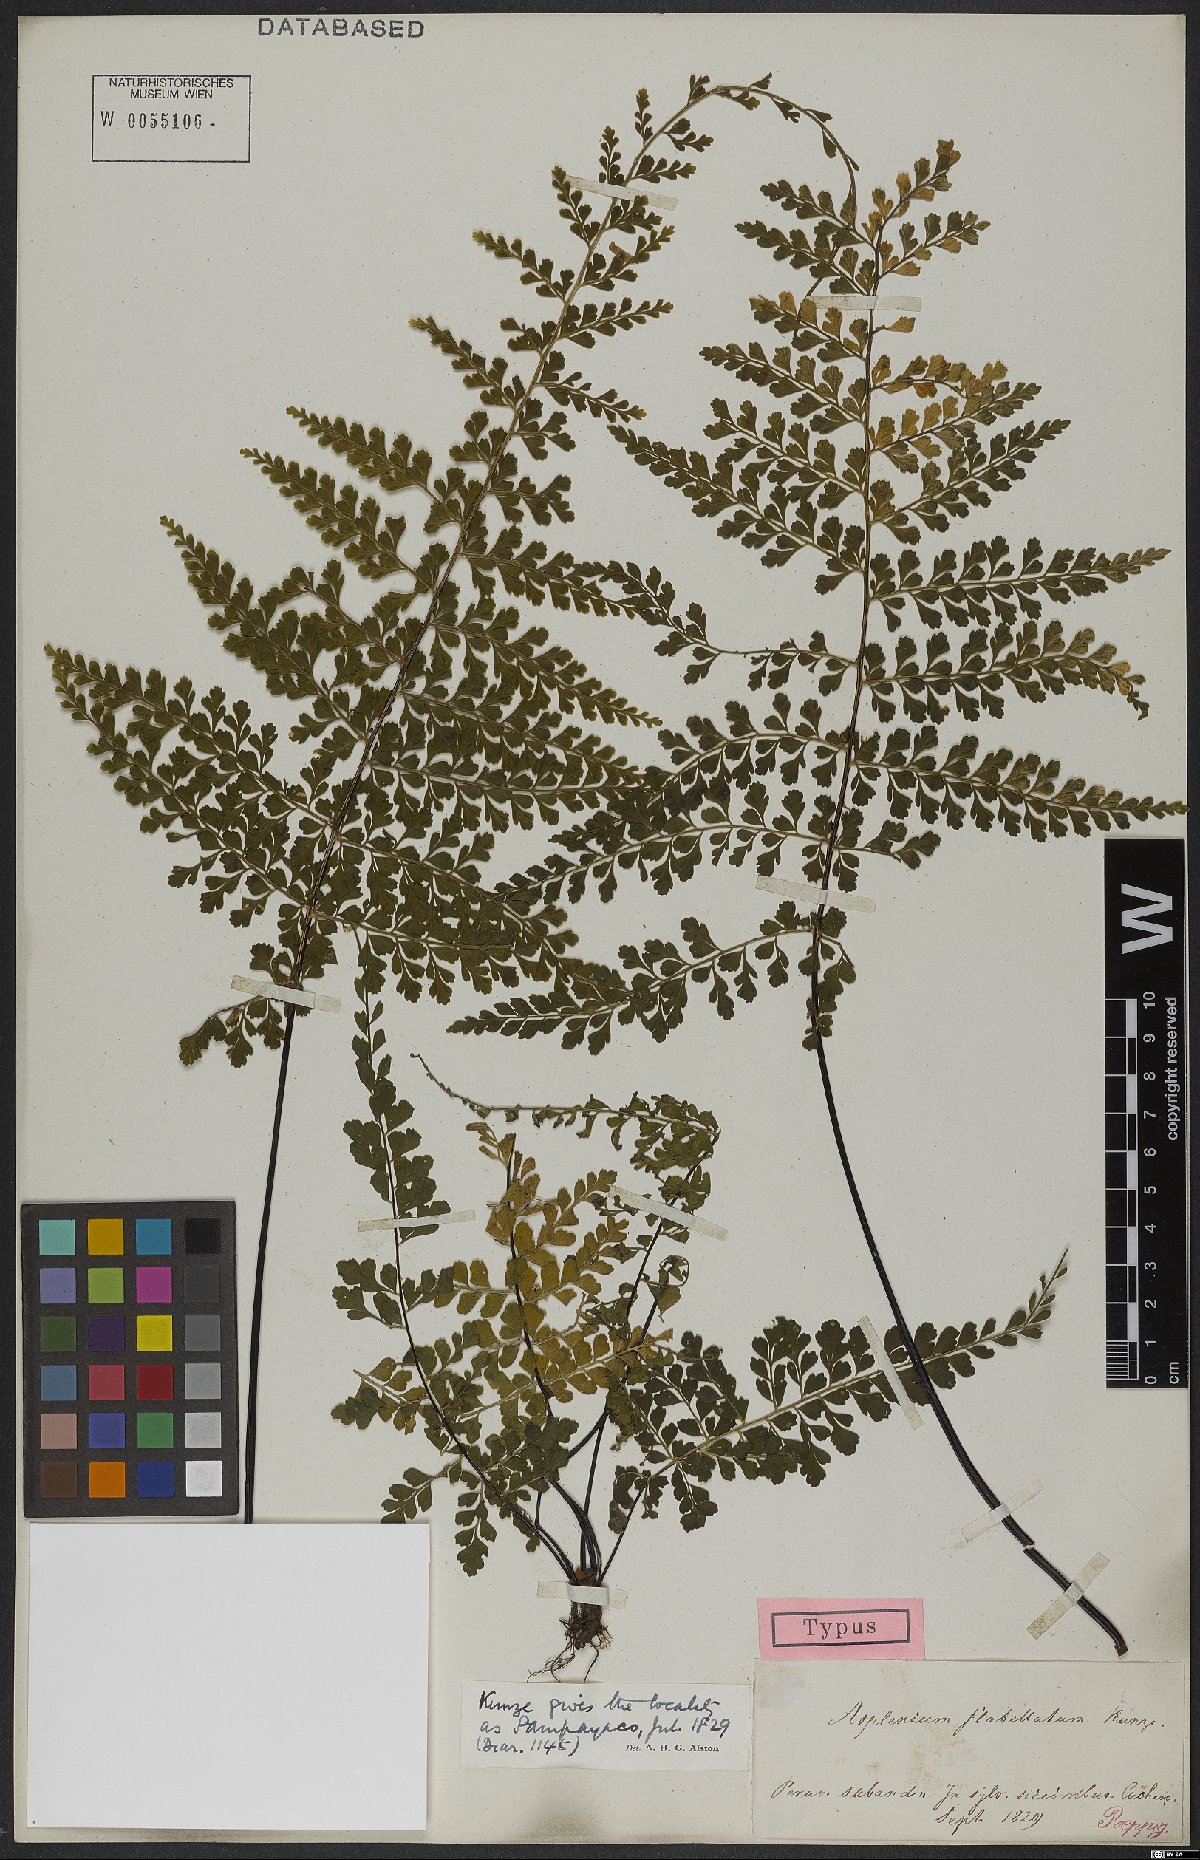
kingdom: Plantae
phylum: Tracheophyta
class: Polypodiopsida
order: Polypodiales
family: Aspleniaceae
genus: Asplenium
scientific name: Asplenium flabellulatum
